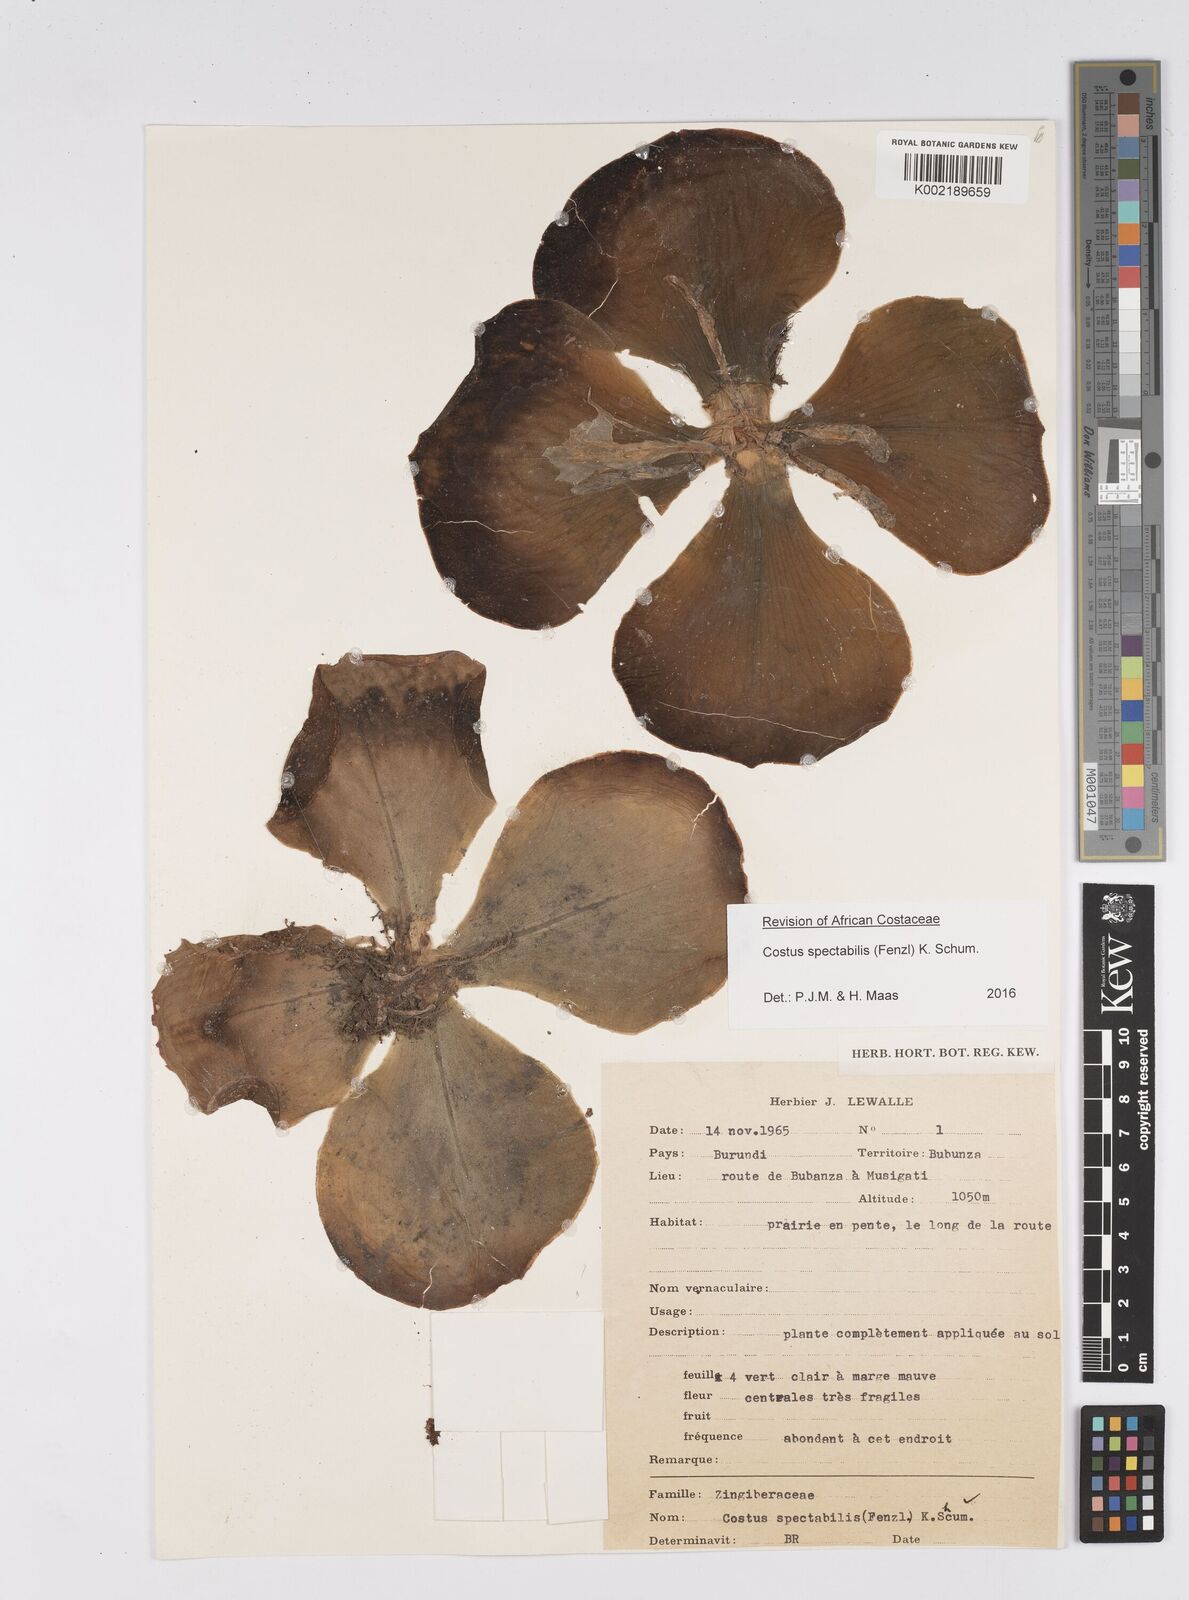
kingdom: Plantae
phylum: Tracheophyta
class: Liliopsida
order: Zingiberales
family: Costaceae
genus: Costus
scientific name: Costus spectabilis
